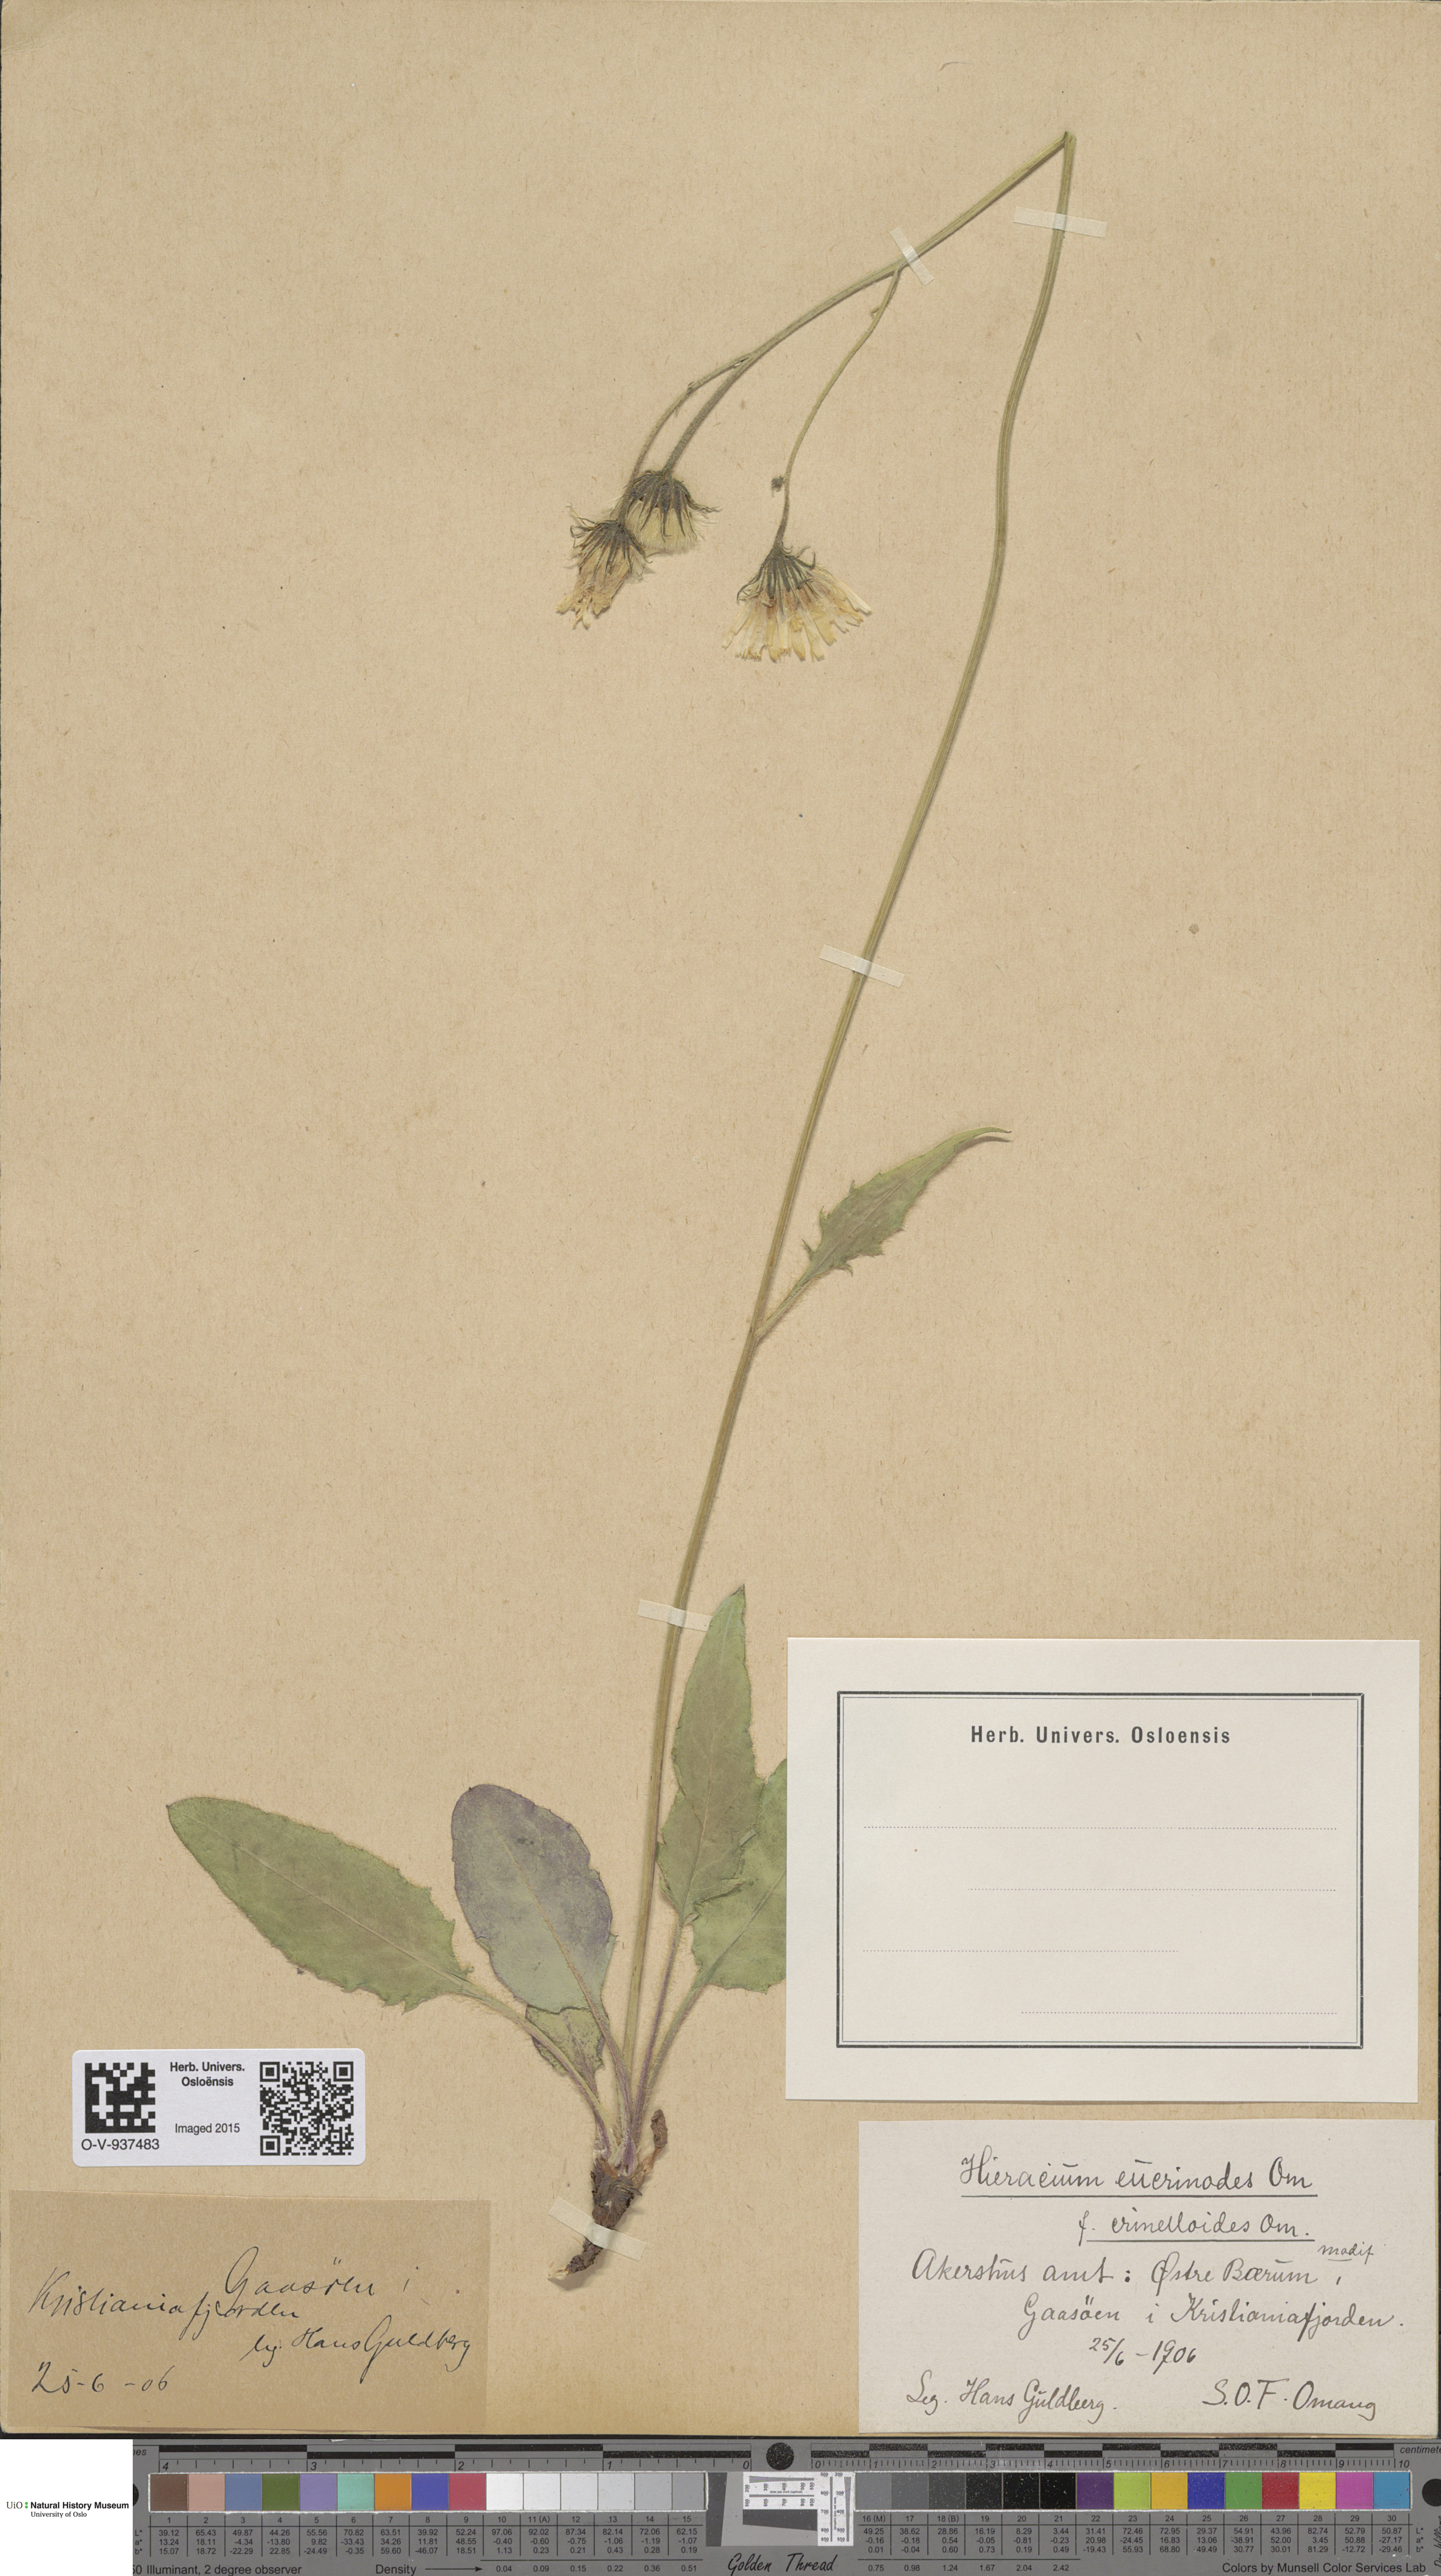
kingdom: Plantae
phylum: Tracheophyta
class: Magnoliopsida
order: Asterales
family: Asteraceae
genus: Hieracium
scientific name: Hieracium
